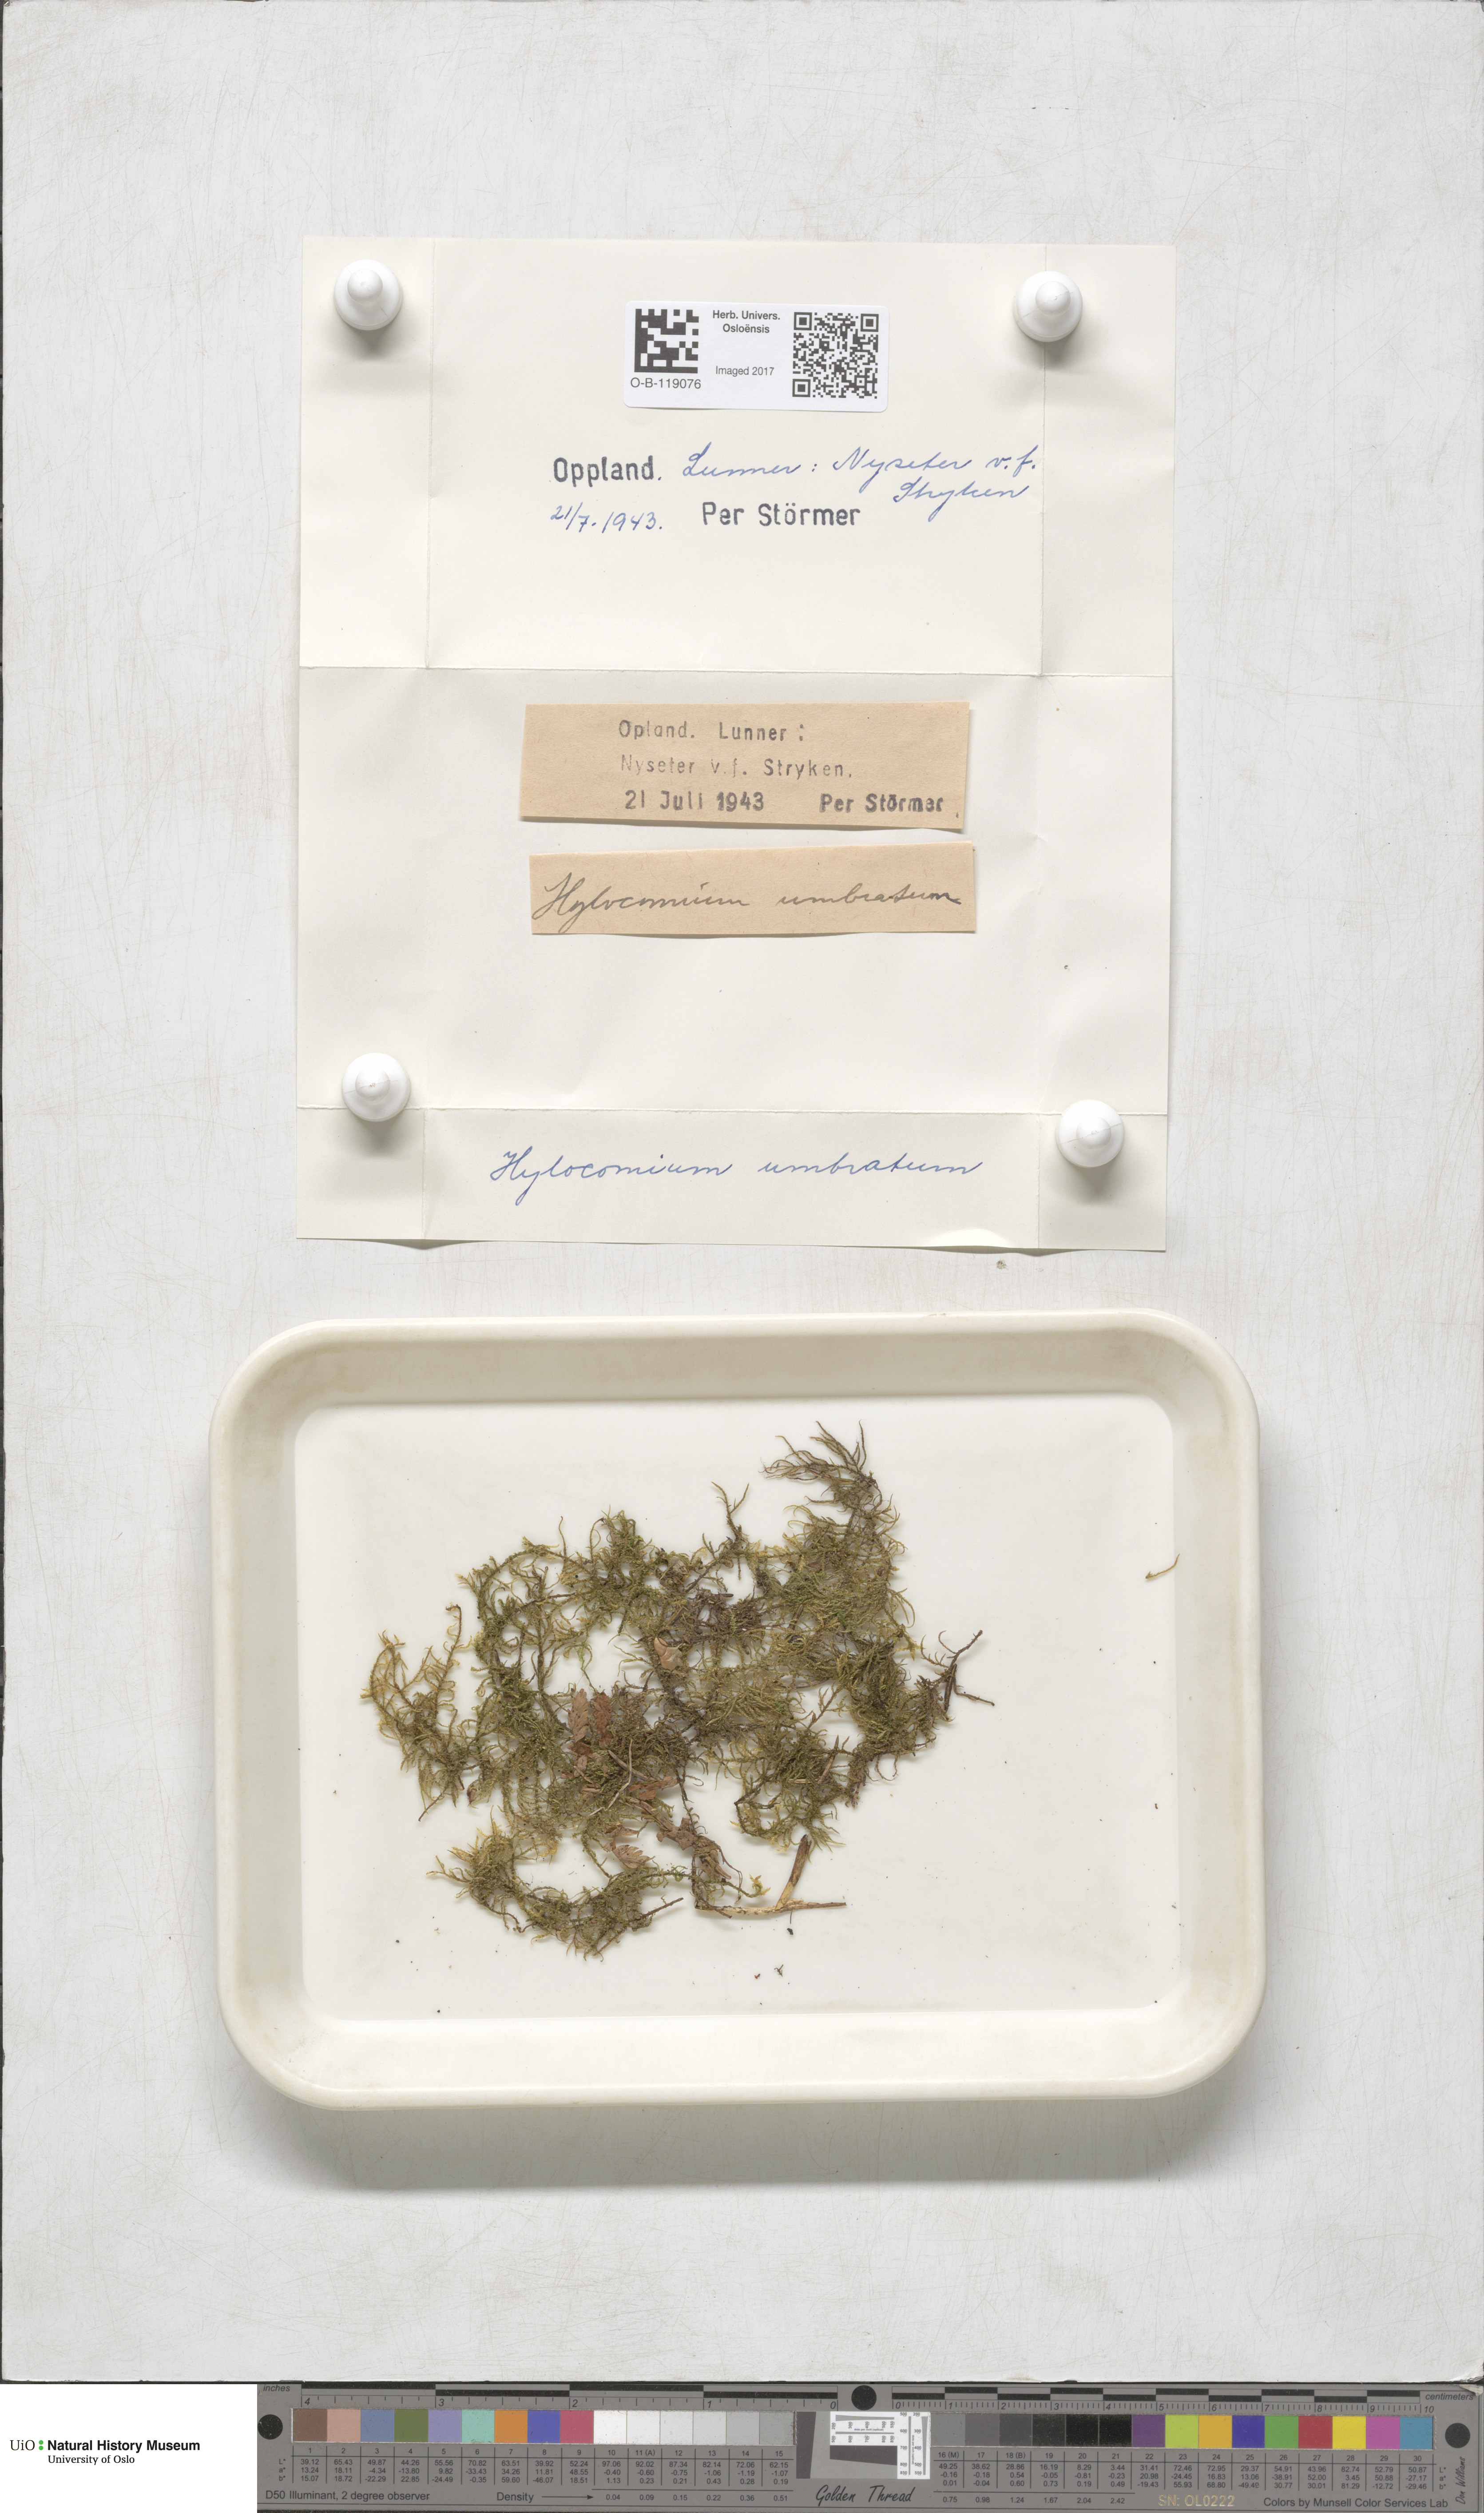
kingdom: Plantae
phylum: Bryophyta
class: Bryopsida
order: Hypnales
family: Hylocomiaceae
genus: Hylocomiastrum
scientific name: Hylocomiastrum umbratum
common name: Shaded woods moss
